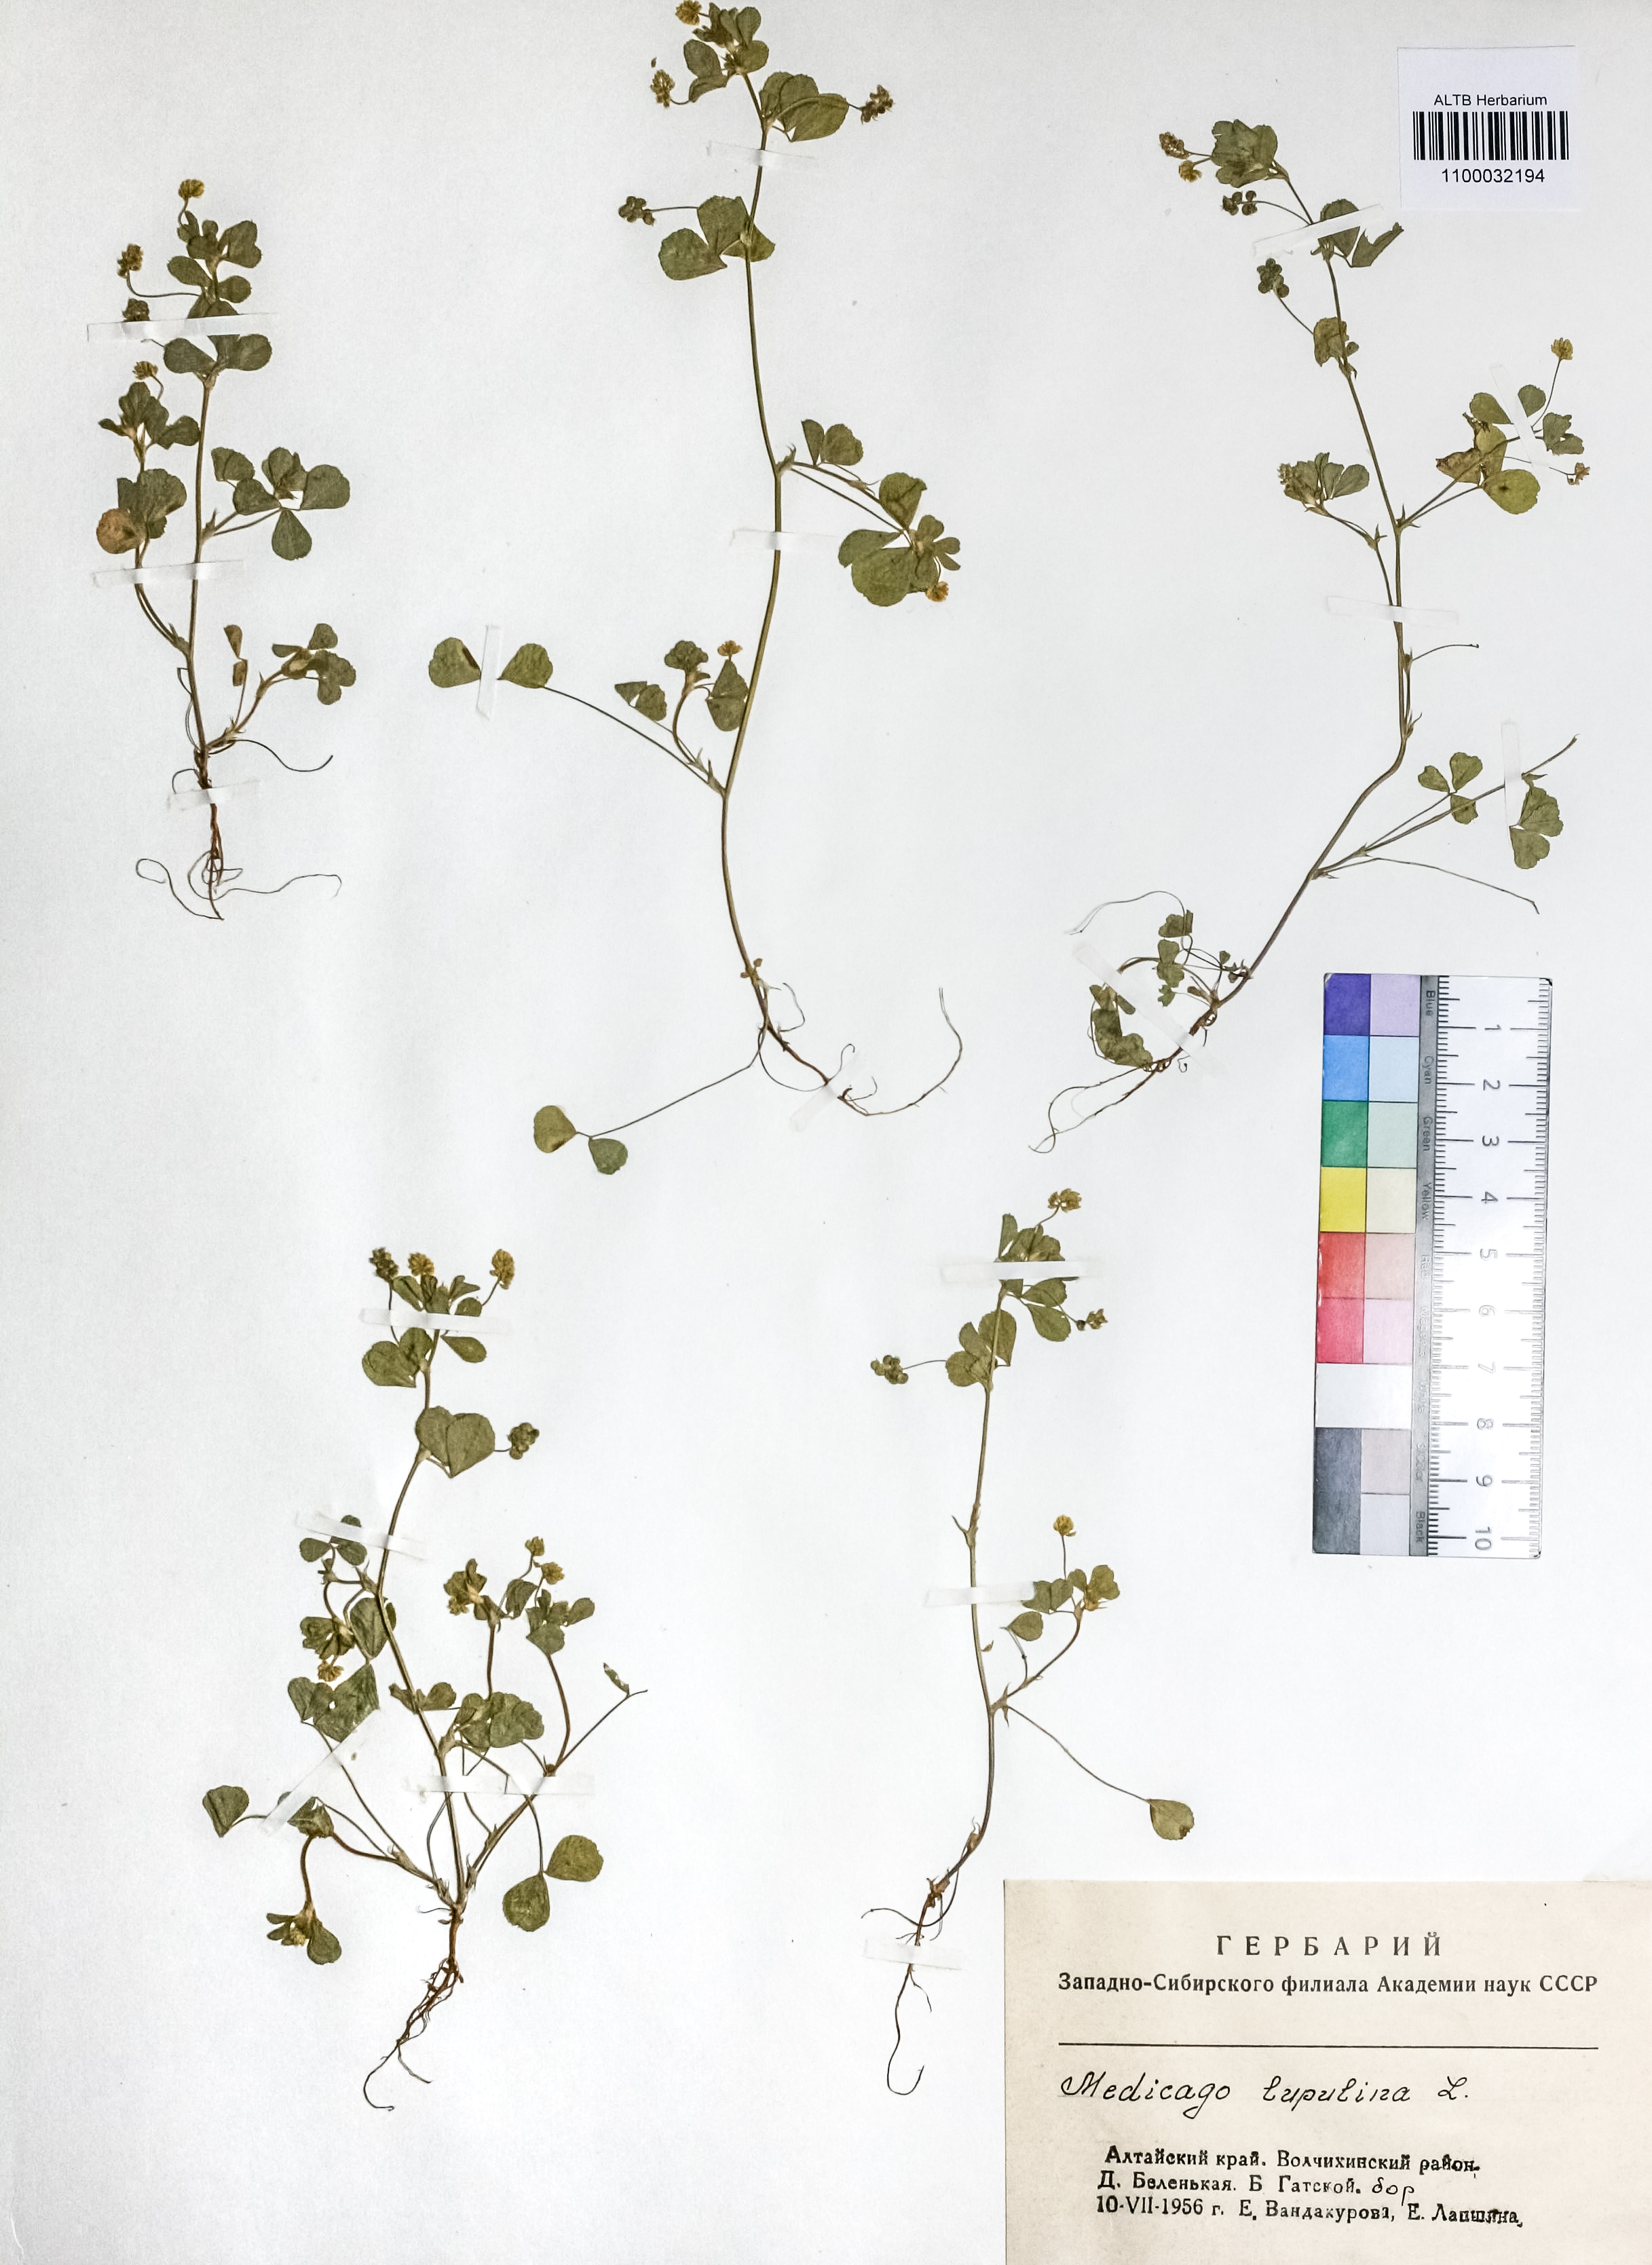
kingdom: Plantae
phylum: Tracheophyta
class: Magnoliopsida
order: Fabales
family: Fabaceae
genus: Medicago
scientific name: Medicago lupulina
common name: Black medick
